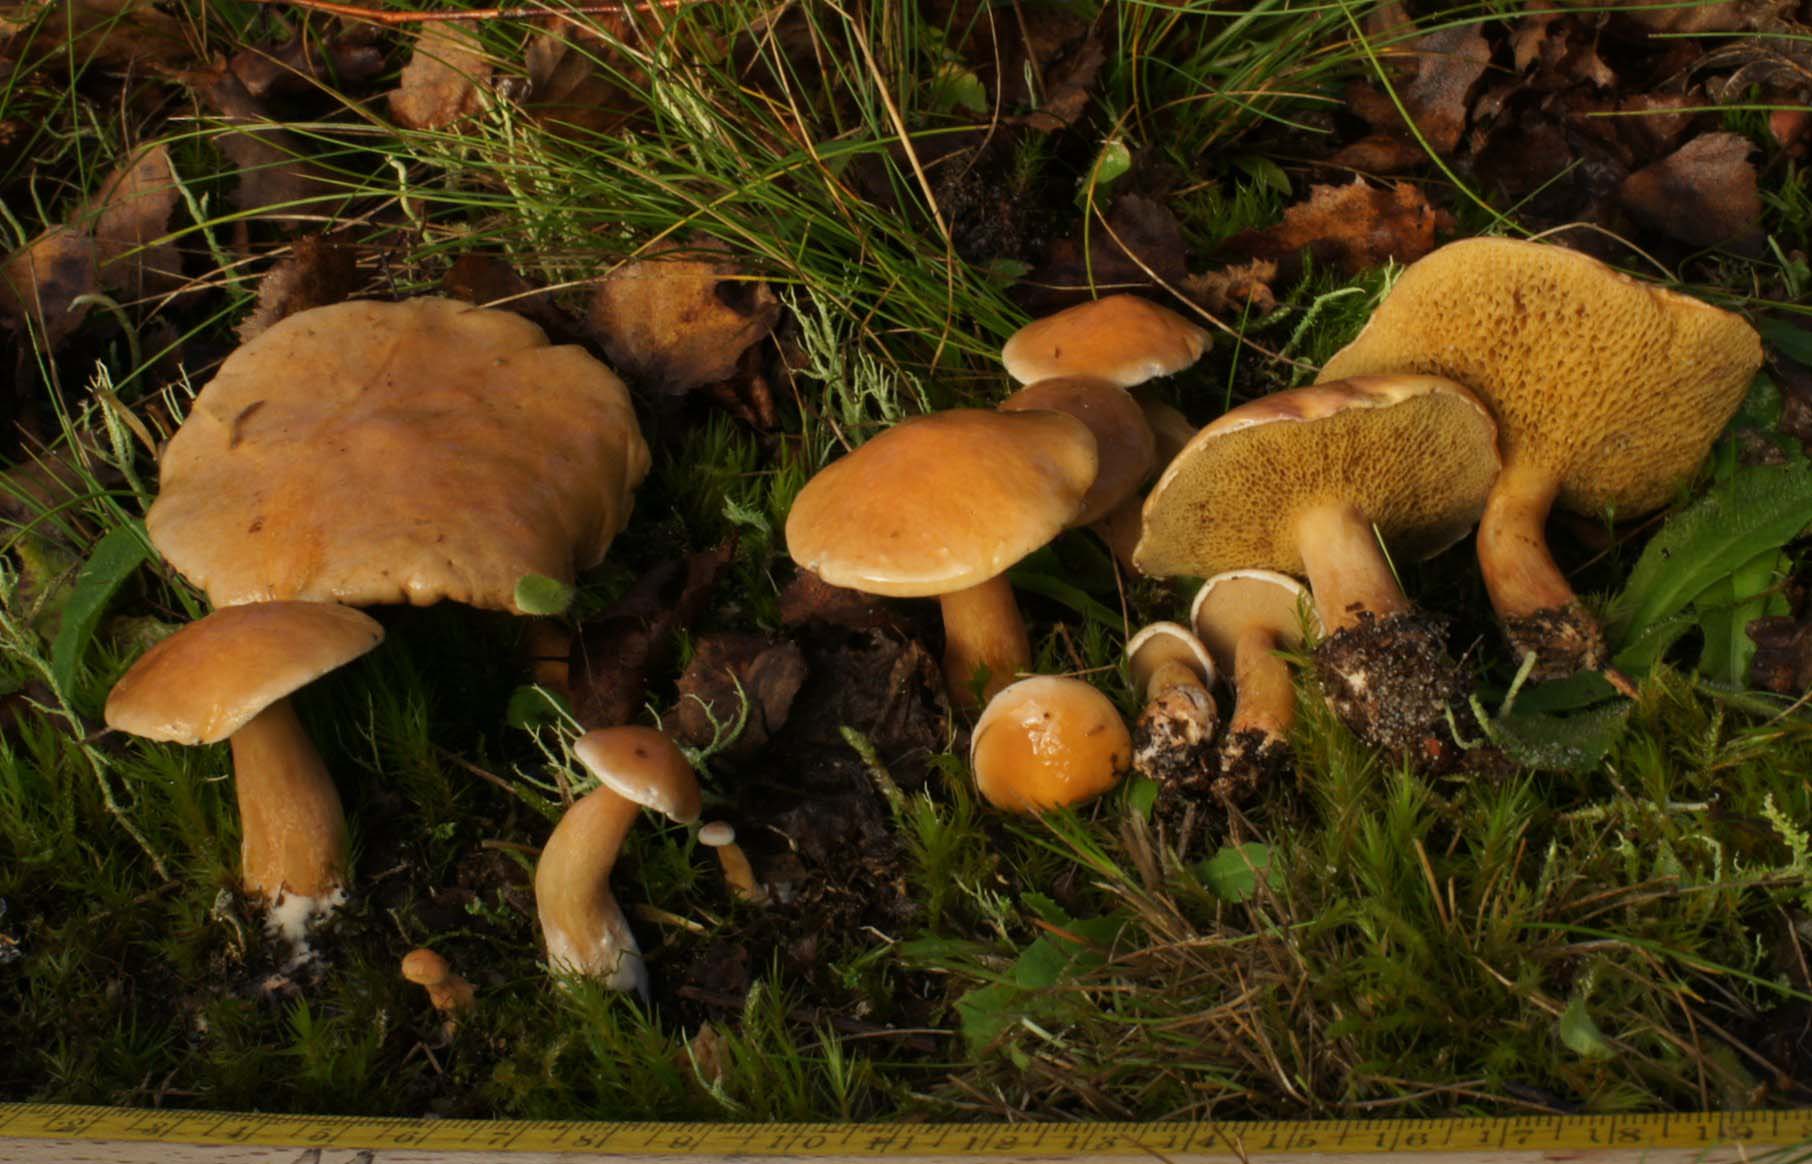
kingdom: Fungi
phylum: Basidiomycota
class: Agaricomycetes
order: Boletales
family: Suillaceae
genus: Suillus
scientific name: Suillus bovinus
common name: grovporet slimrørhat
